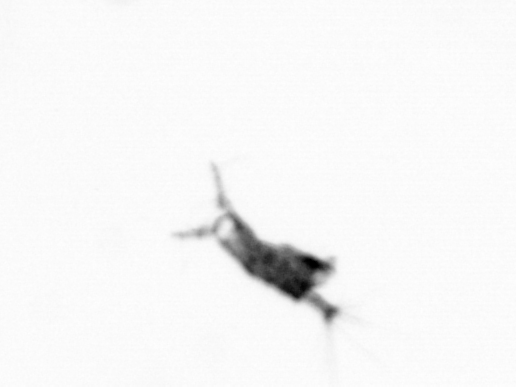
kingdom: Animalia
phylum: Arthropoda
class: Copepoda
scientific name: Copepoda
